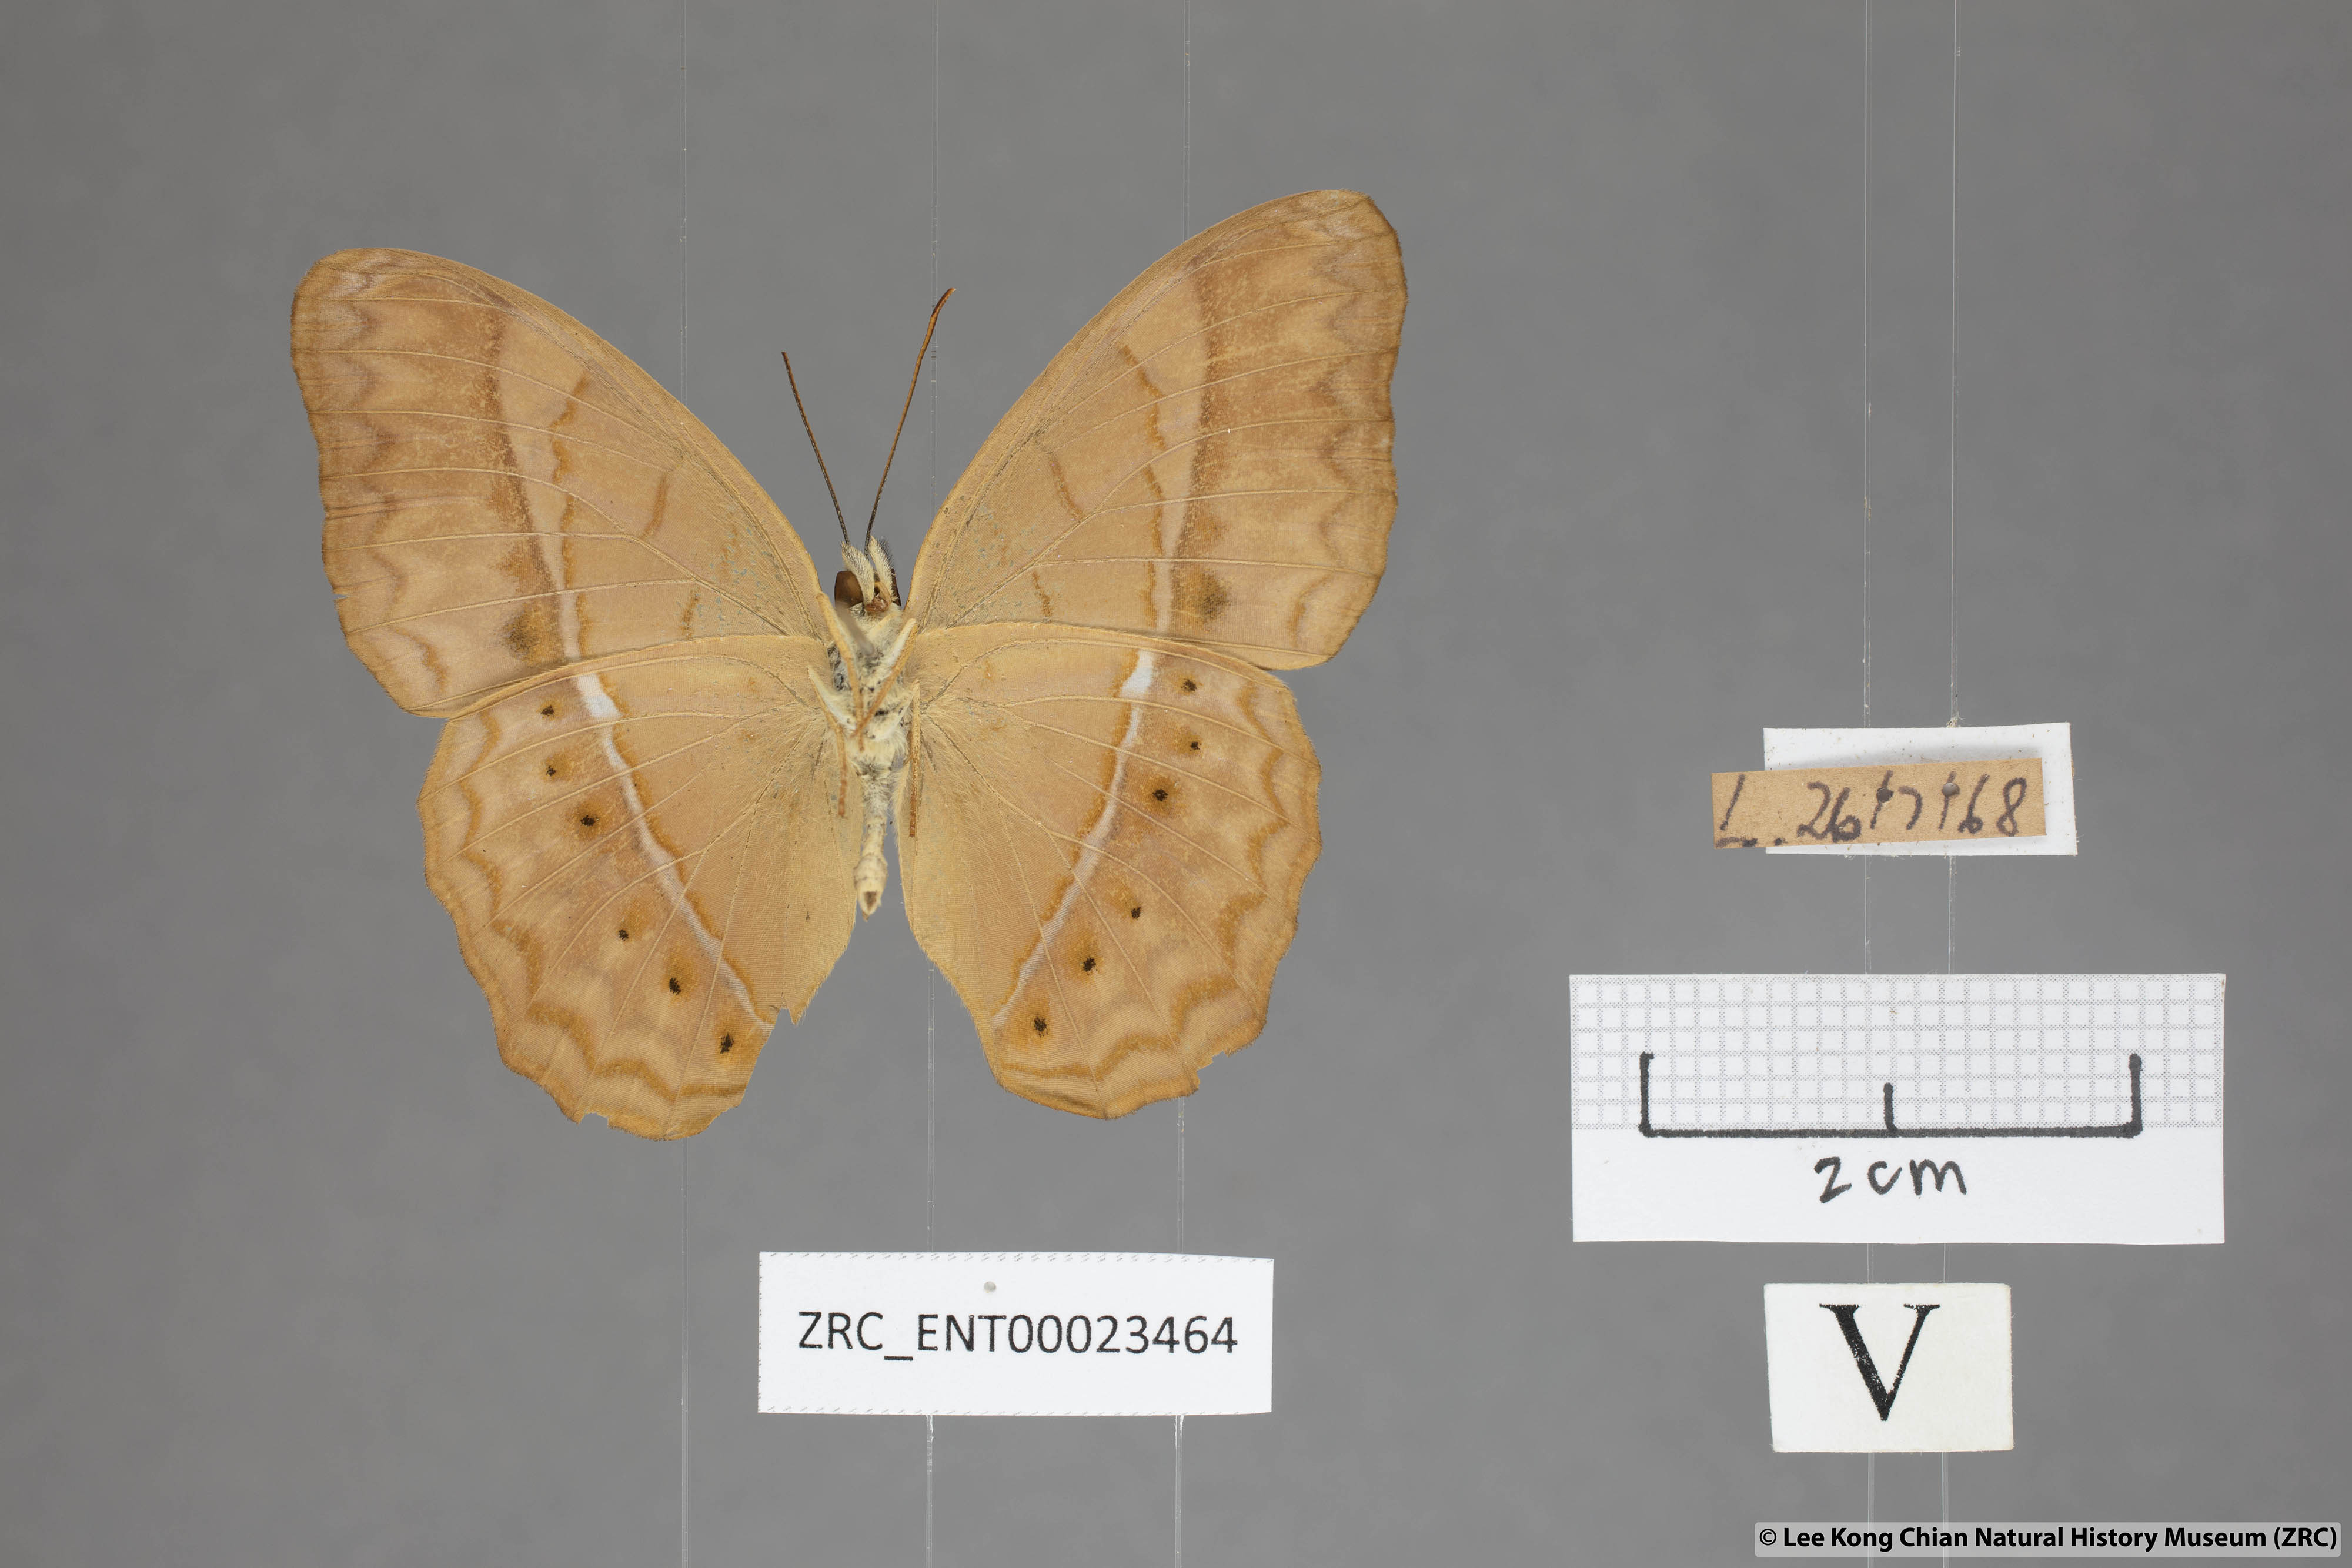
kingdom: Animalia
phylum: Arthropoda
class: Insecta
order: Lepidoptera
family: Nymphalidae
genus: Cirrochroa
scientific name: Cirrochroa surya
